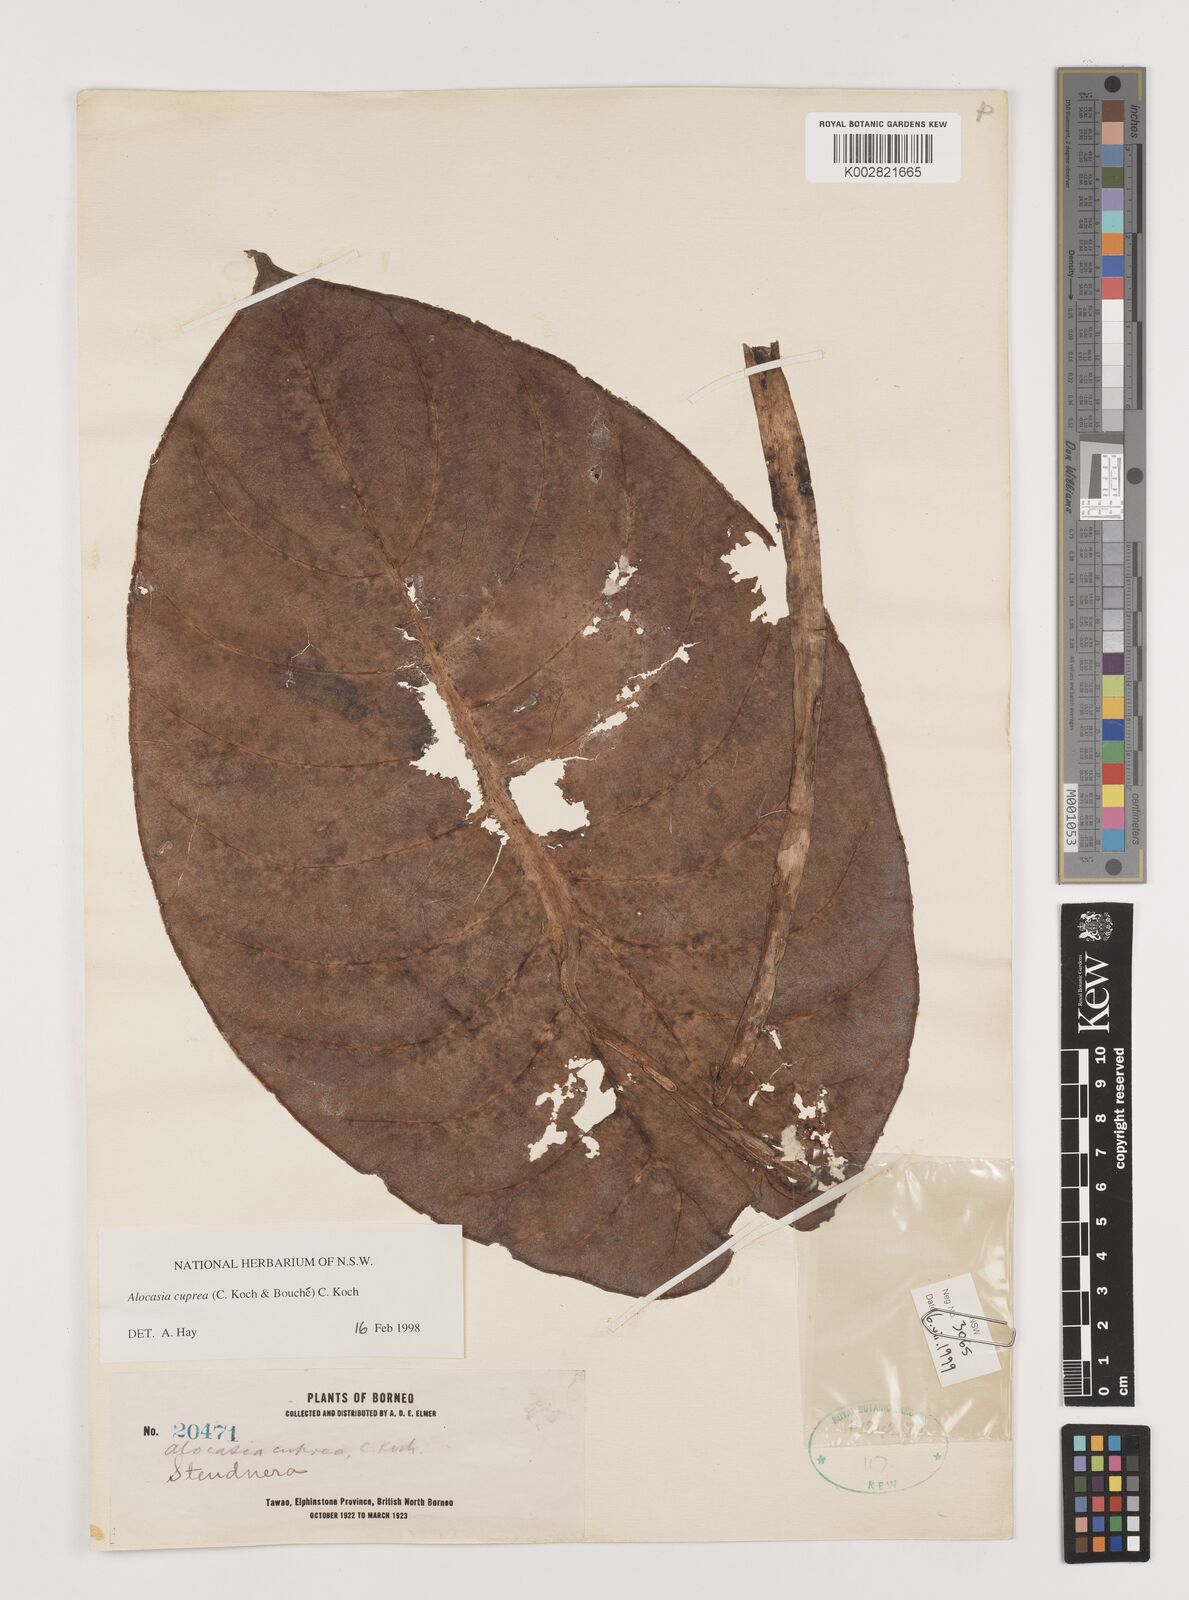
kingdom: Plantae
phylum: Tracheophyta
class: Liliopsida
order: Alismatales
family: Araceae
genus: Alocasia
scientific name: Alocasia cuprea
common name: Giant caladium
